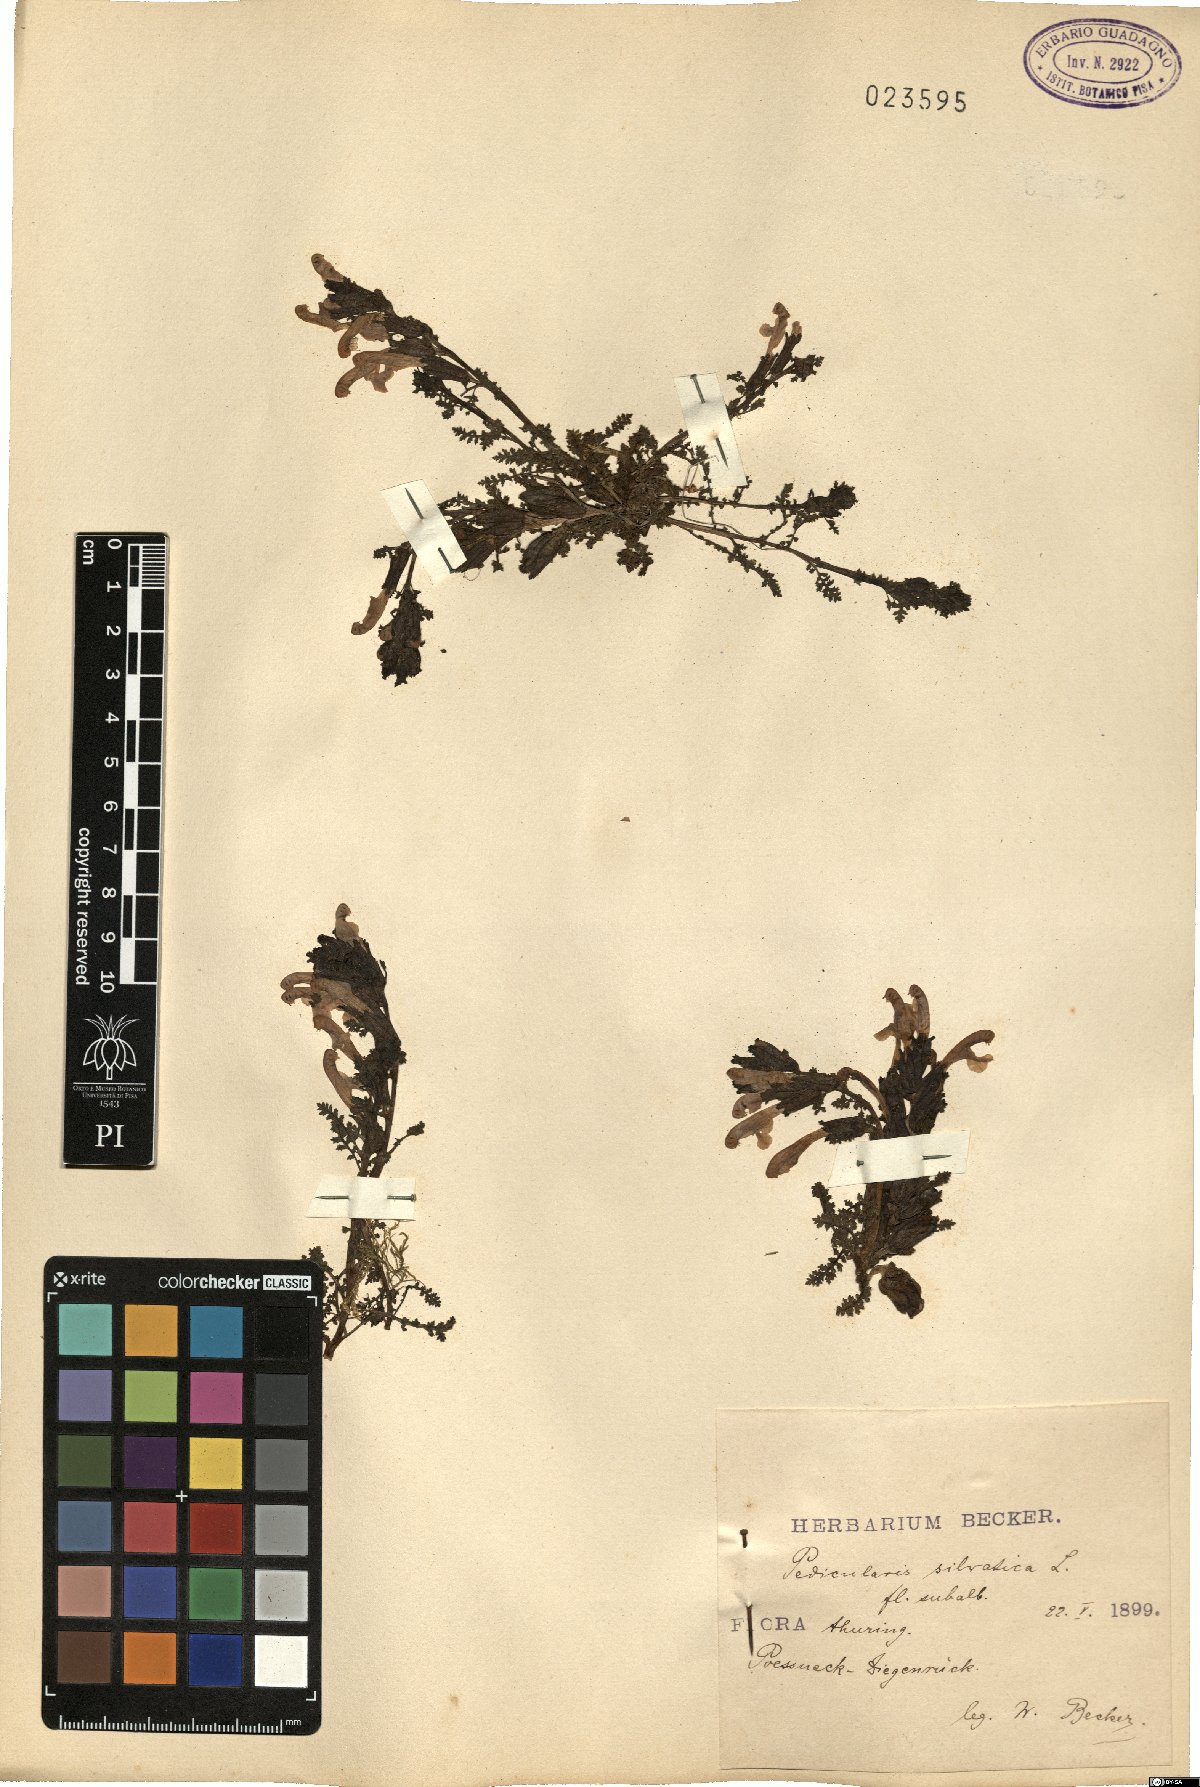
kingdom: Plantae
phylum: Tracheophyta
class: Magnoliopsida
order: Lamiales
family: Orobanchaceae
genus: Pedicularis
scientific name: Pedicularis sylvatica
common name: Lousewort
